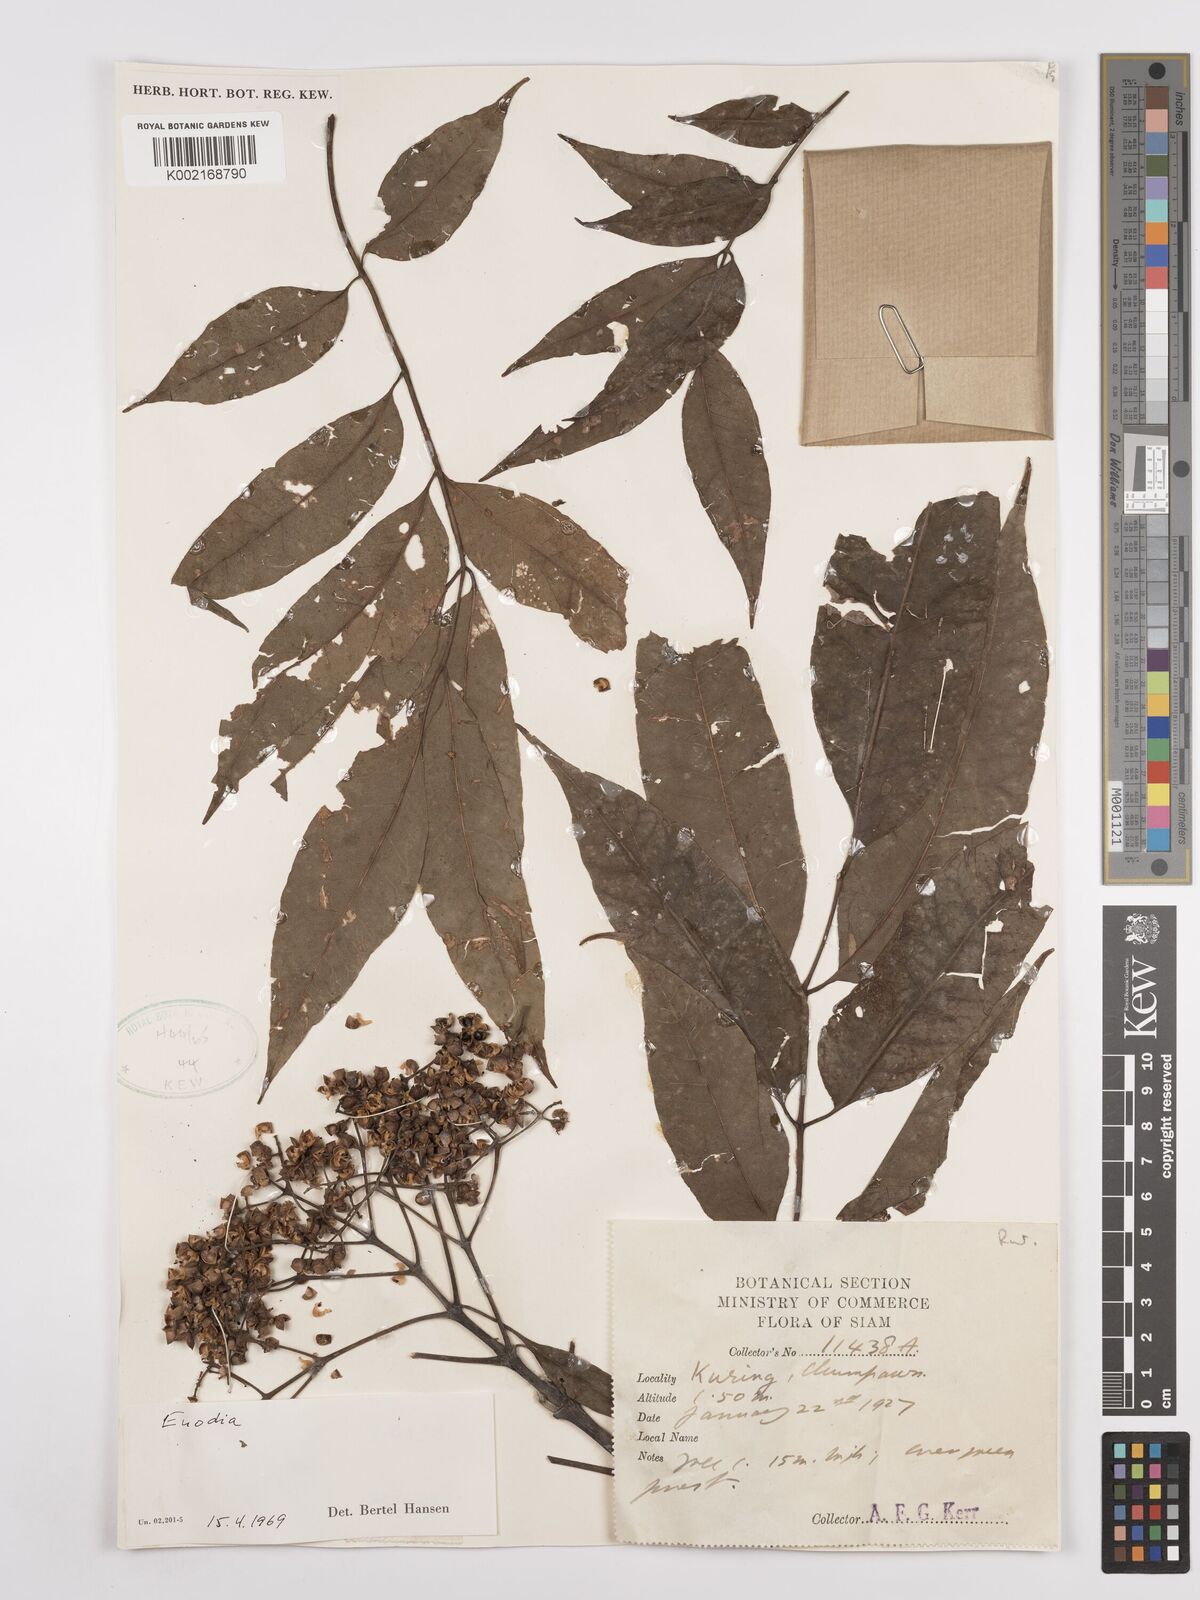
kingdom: Plantae
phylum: Tracheophyta
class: Magnoliopsida
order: Sapindales
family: Rutaceae
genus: Euodia
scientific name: Euodia
